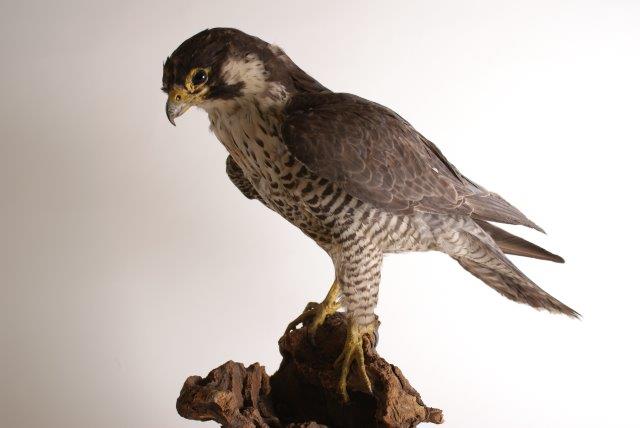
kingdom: Animalia
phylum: Chordata
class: Aves
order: Falconiformes
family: Falconidae
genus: Falco
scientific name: Falco peregrinus
